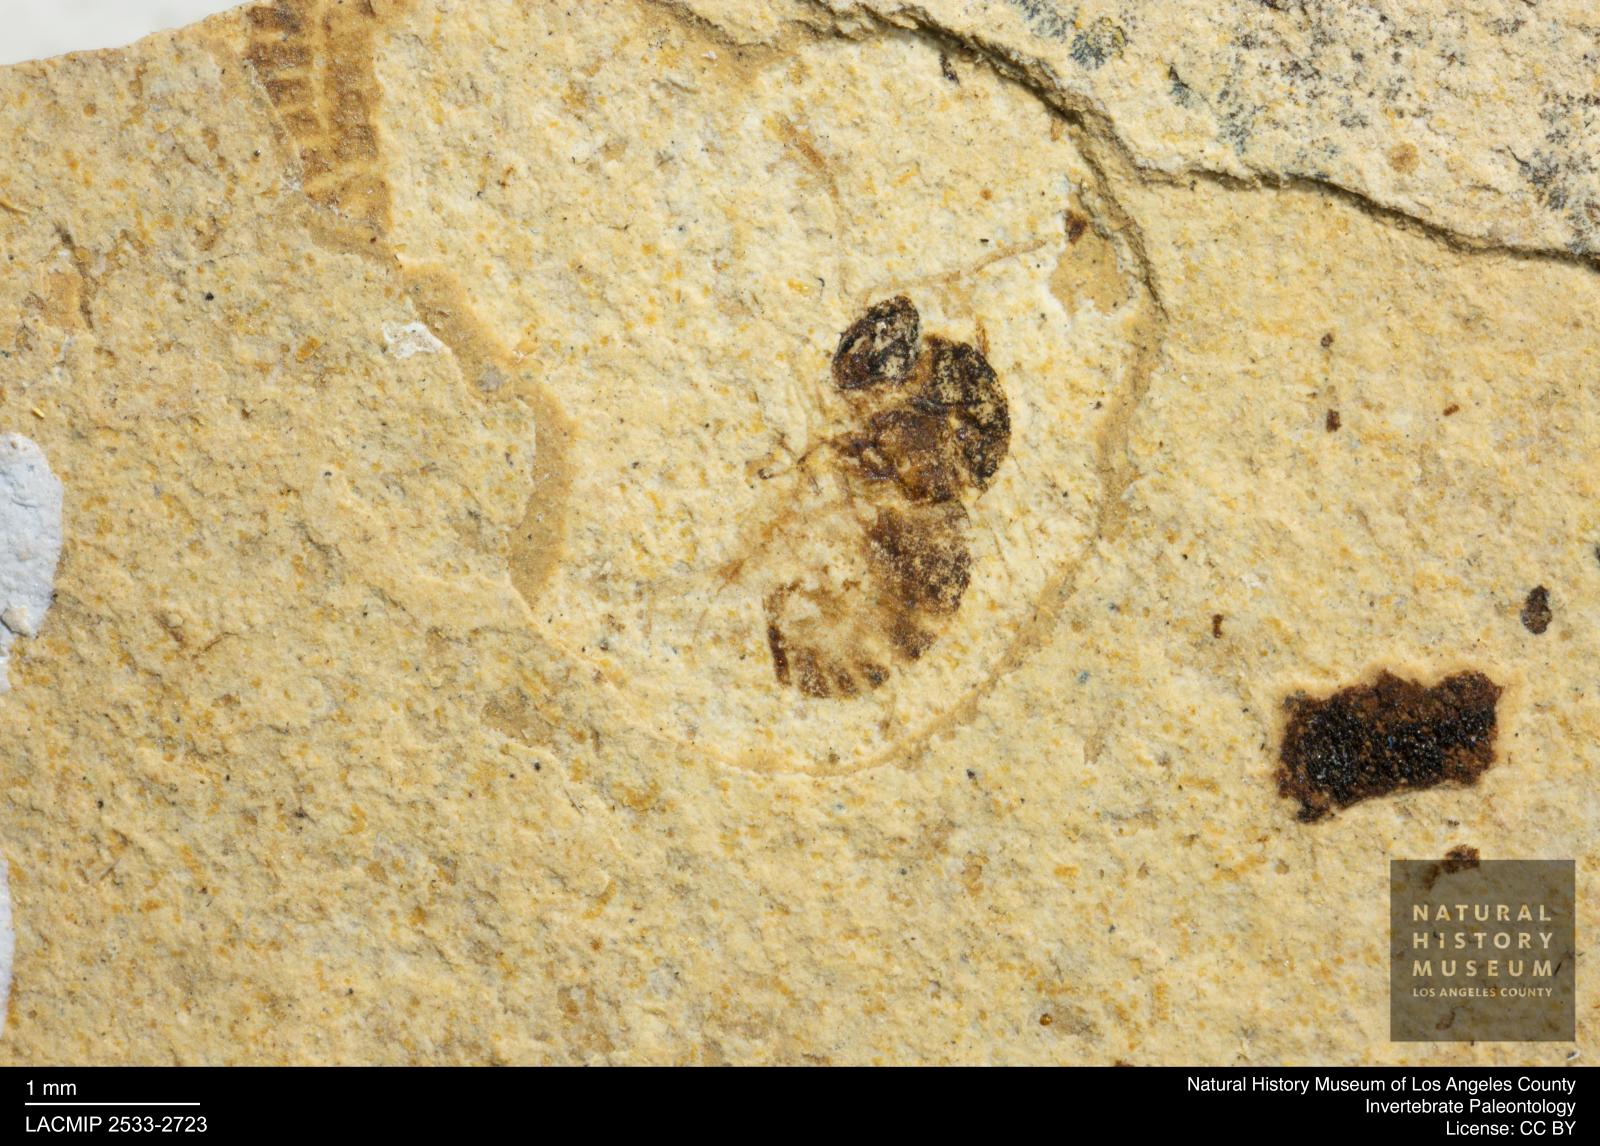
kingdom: Animalia
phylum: Arthropoda
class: Insecta
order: Hymenoptera
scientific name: Hymenoptera
